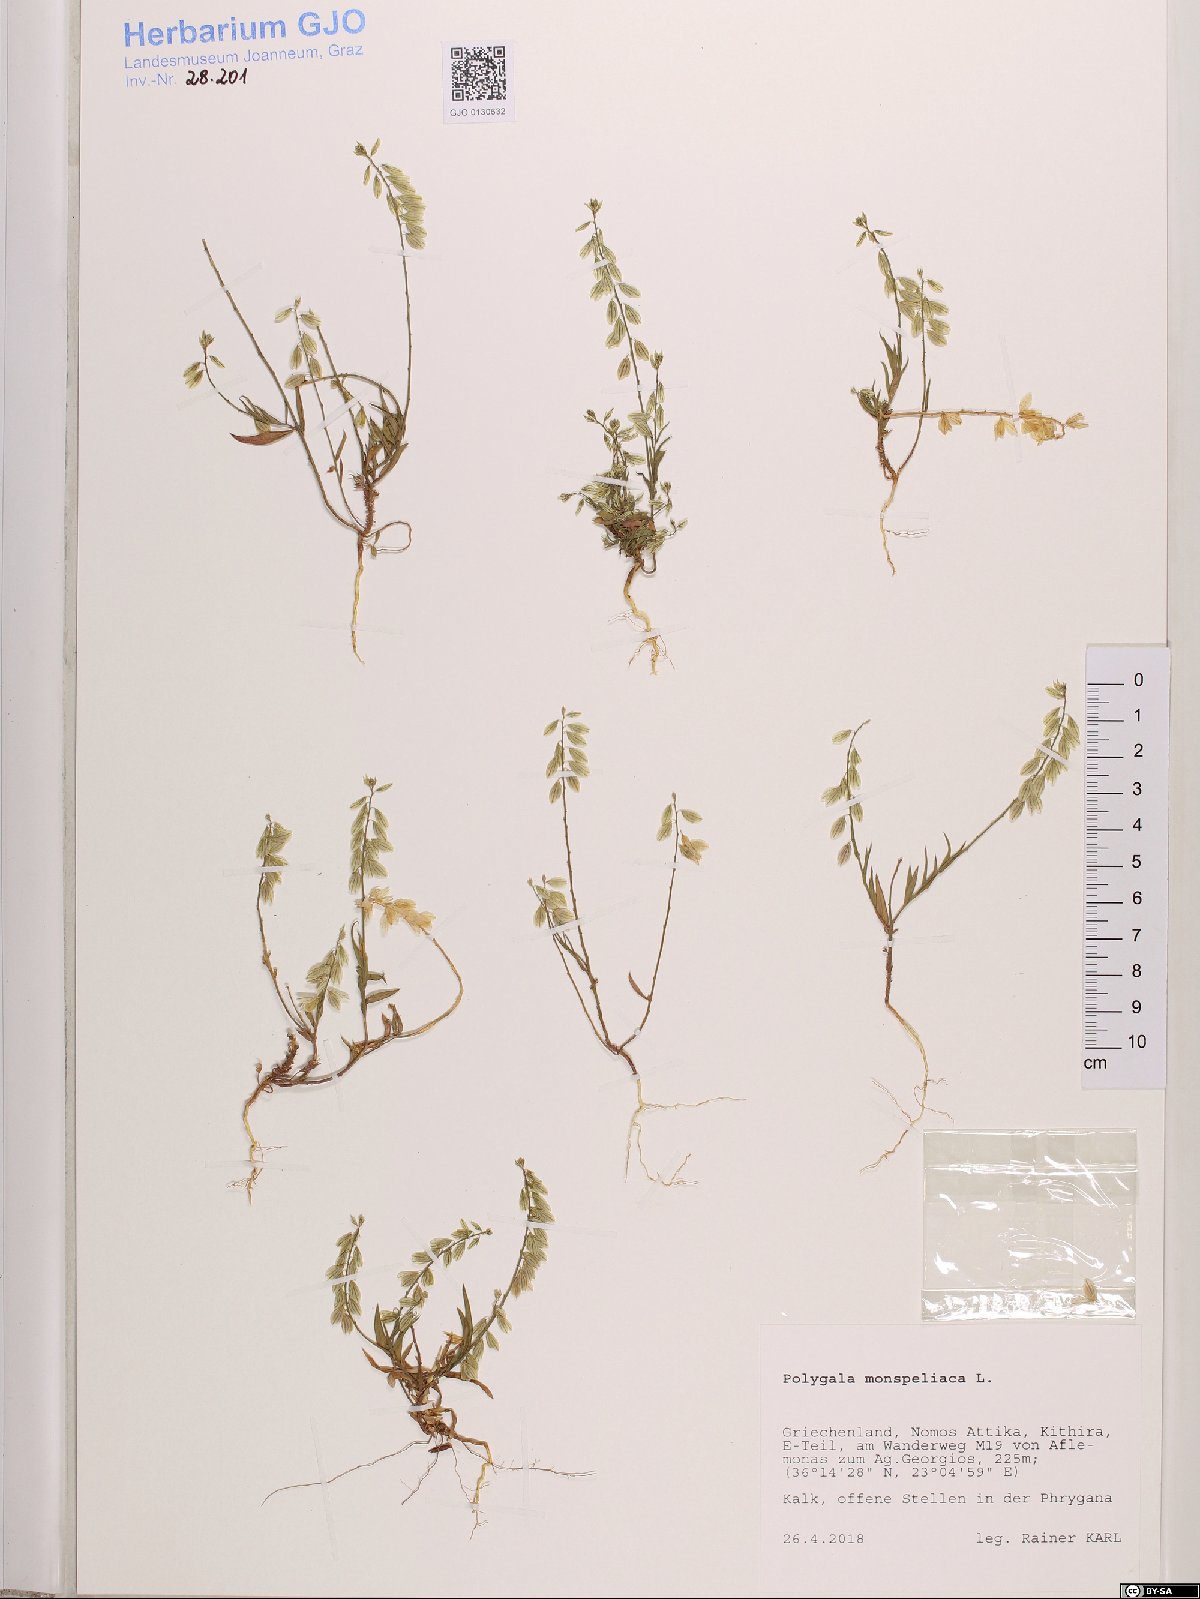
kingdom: Plantae
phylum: Tracheophyta
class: Magnoliopsida
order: Fabales
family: Polygalaceae
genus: Polygala
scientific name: Polygala monspeliaca
